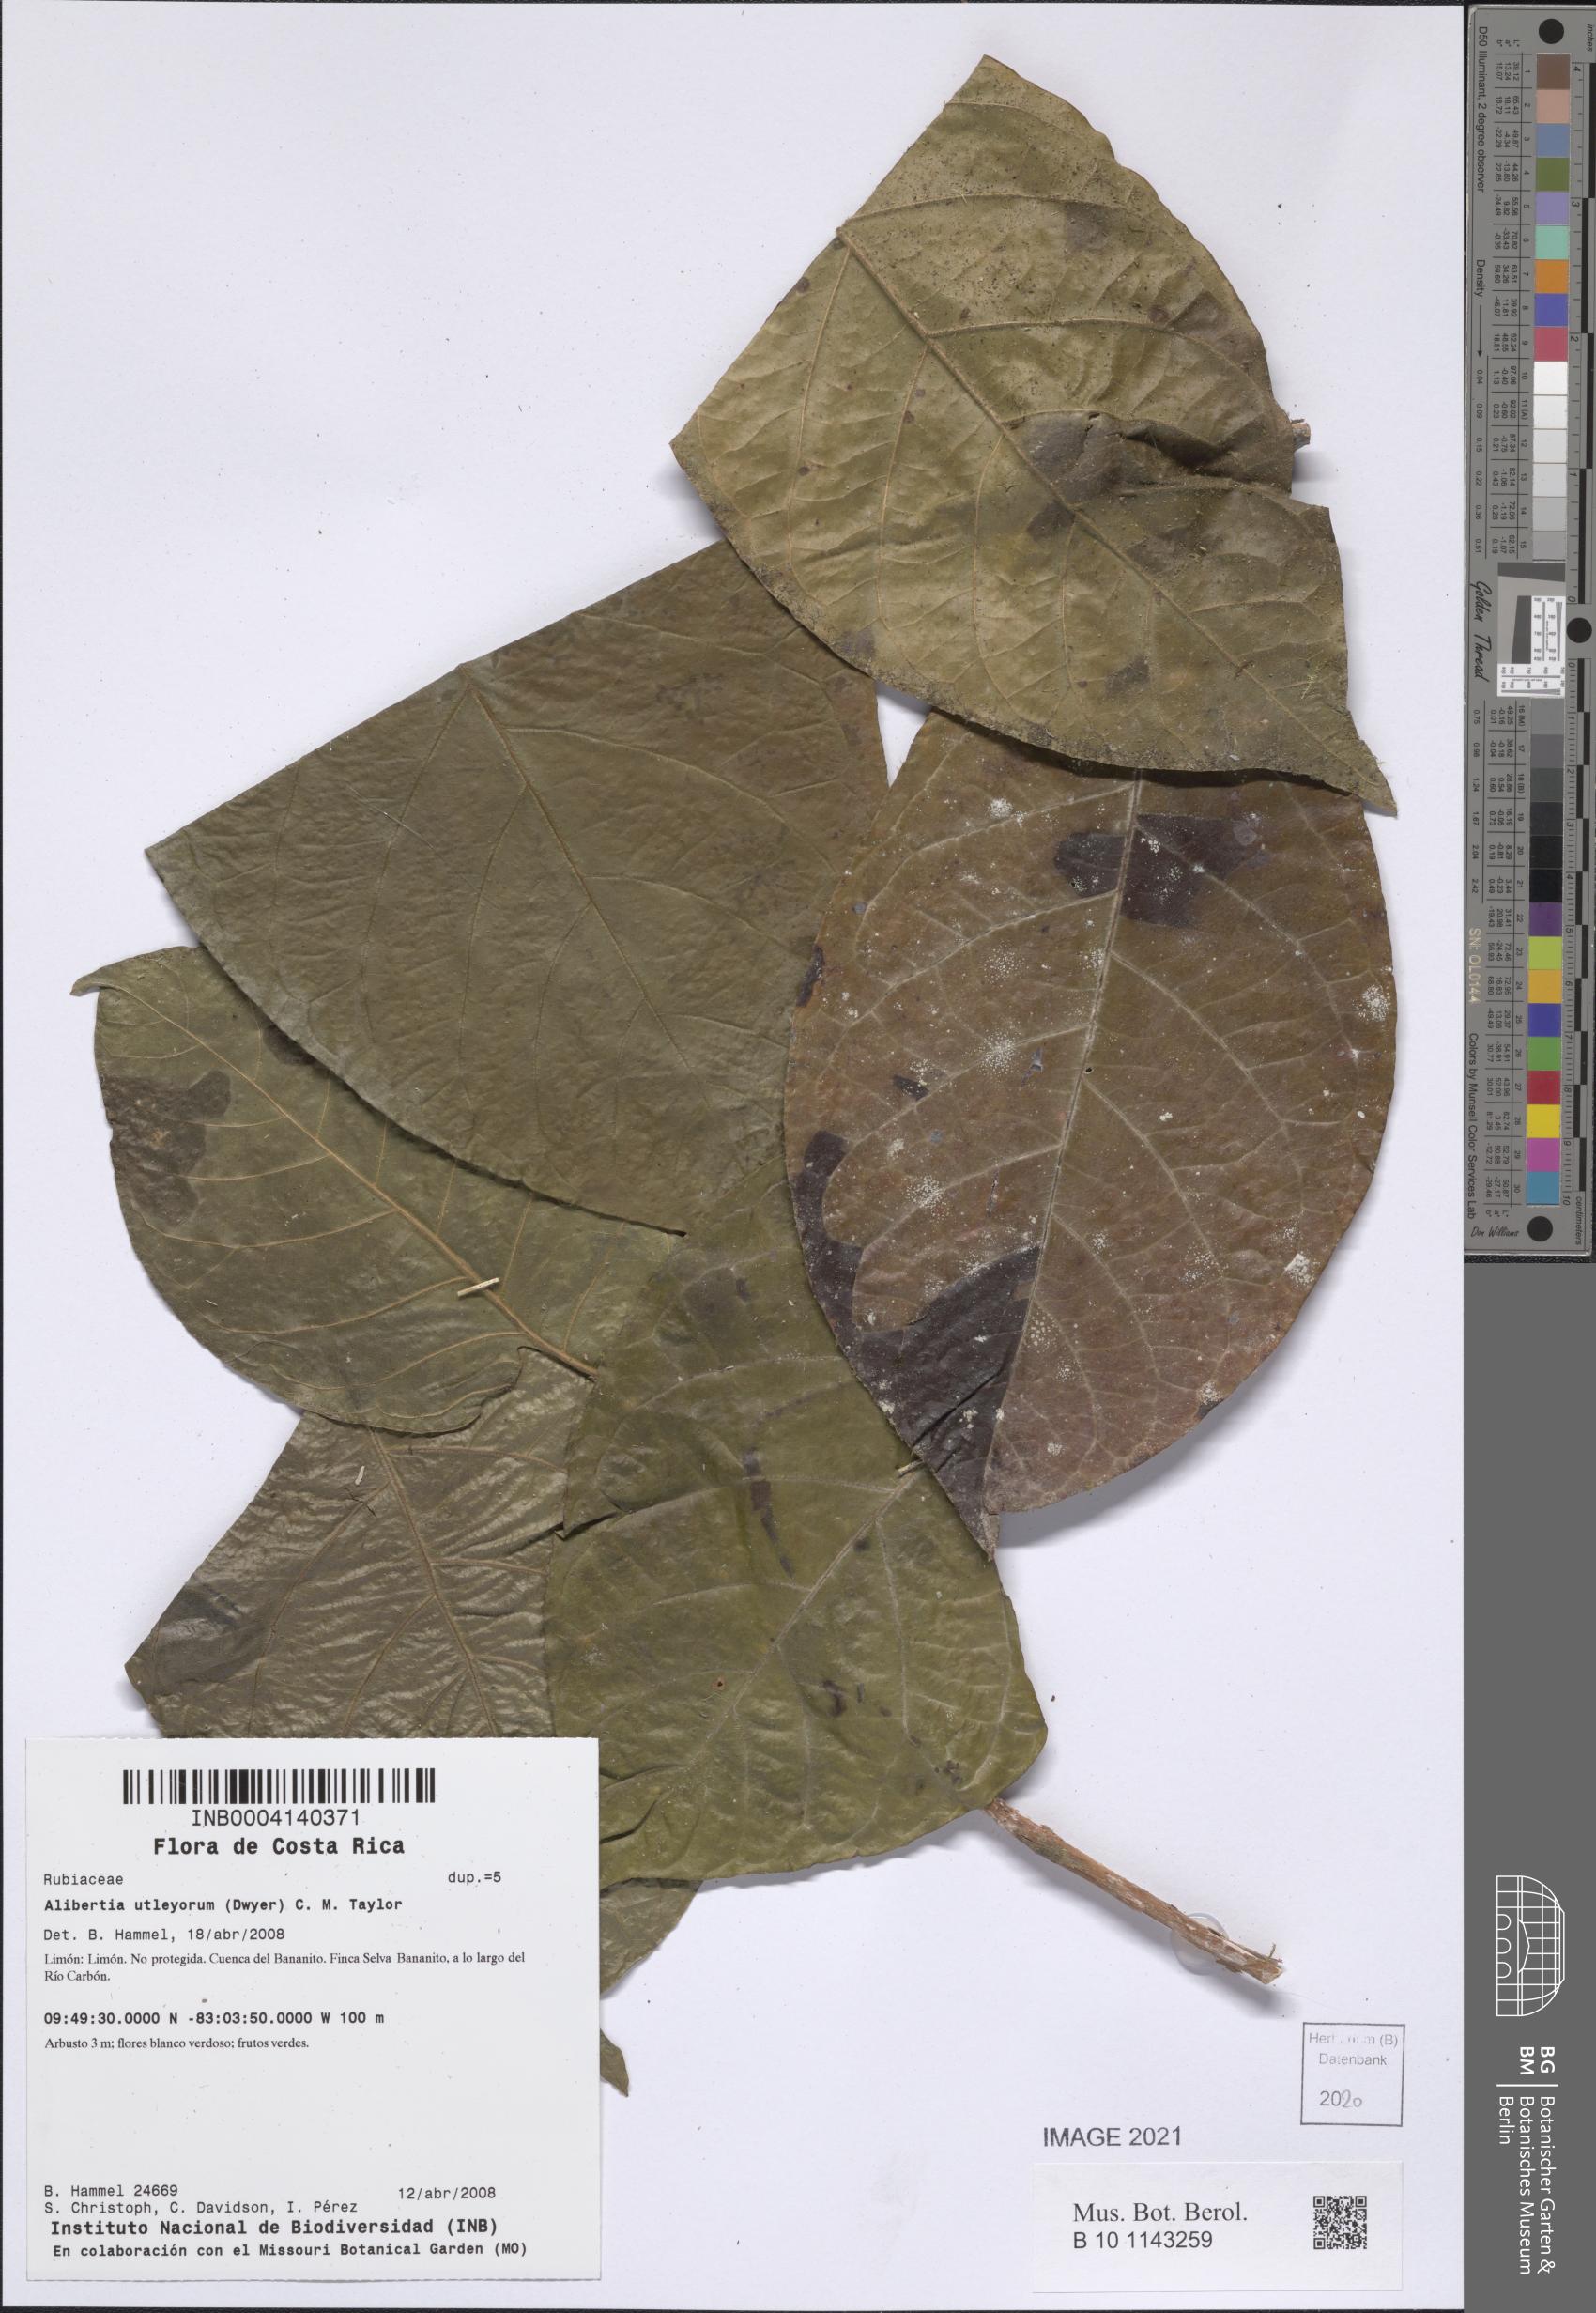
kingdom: Plantae
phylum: Tracheophyta
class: Magnoliopsida
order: Gentianales
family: Rubiaceae
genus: Alibertia
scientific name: Alibertia utleyorum
